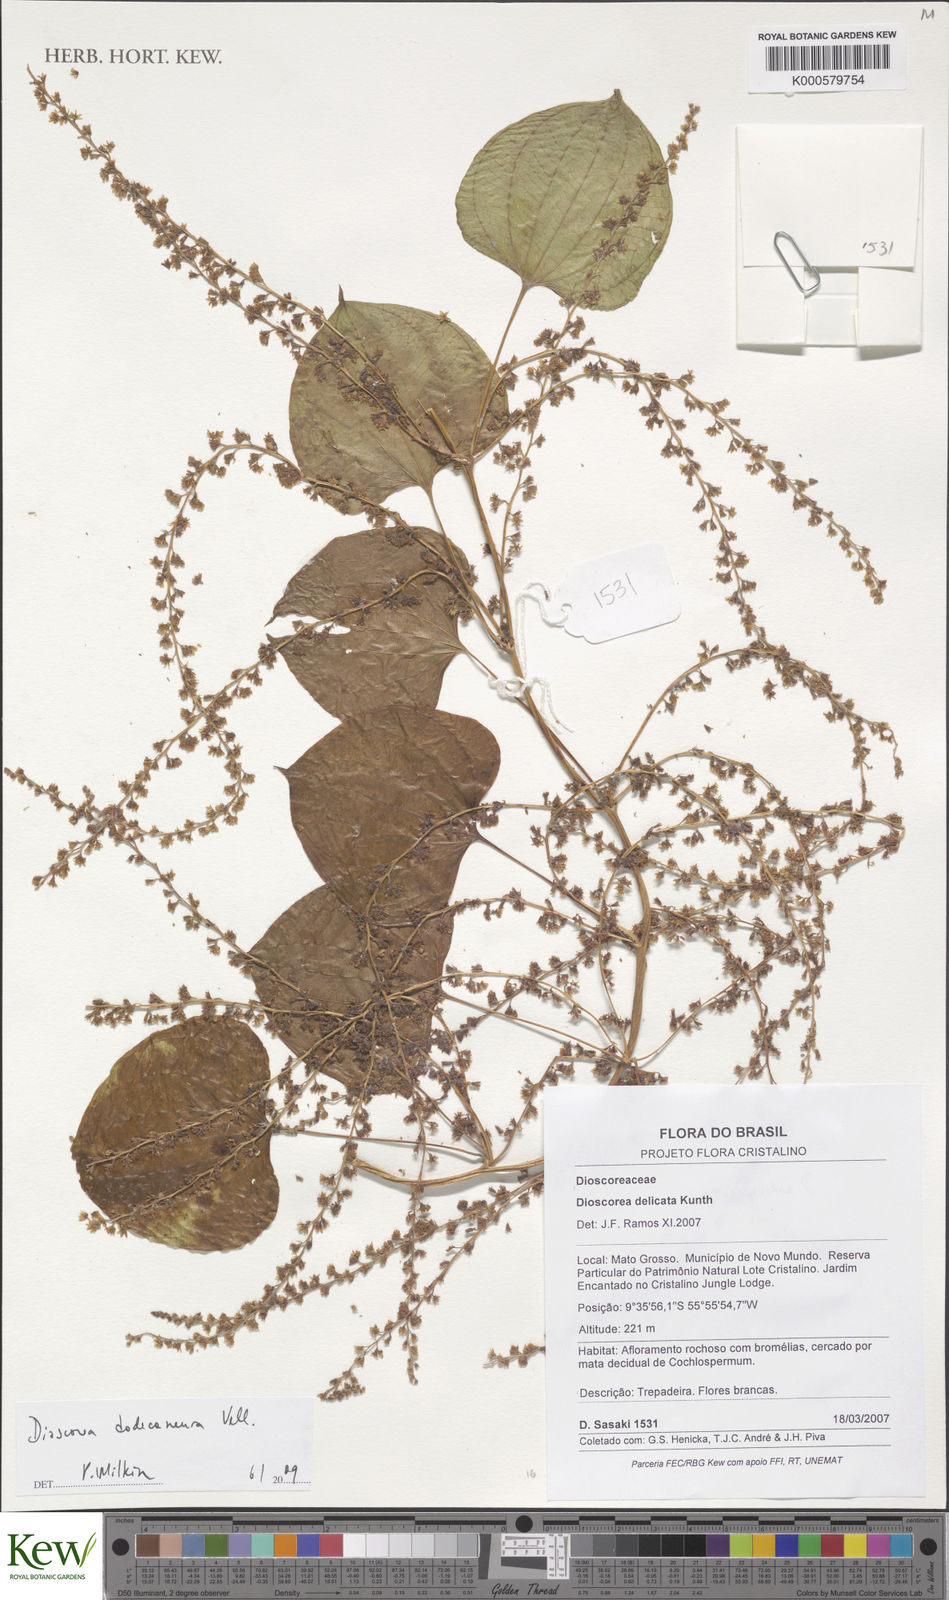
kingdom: Plantae
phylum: Tracheophyta
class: Liliopsida
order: Dioscoreales
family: Dioscoreaceae
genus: Dioscorea
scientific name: Dioscorea stegelmanniana
